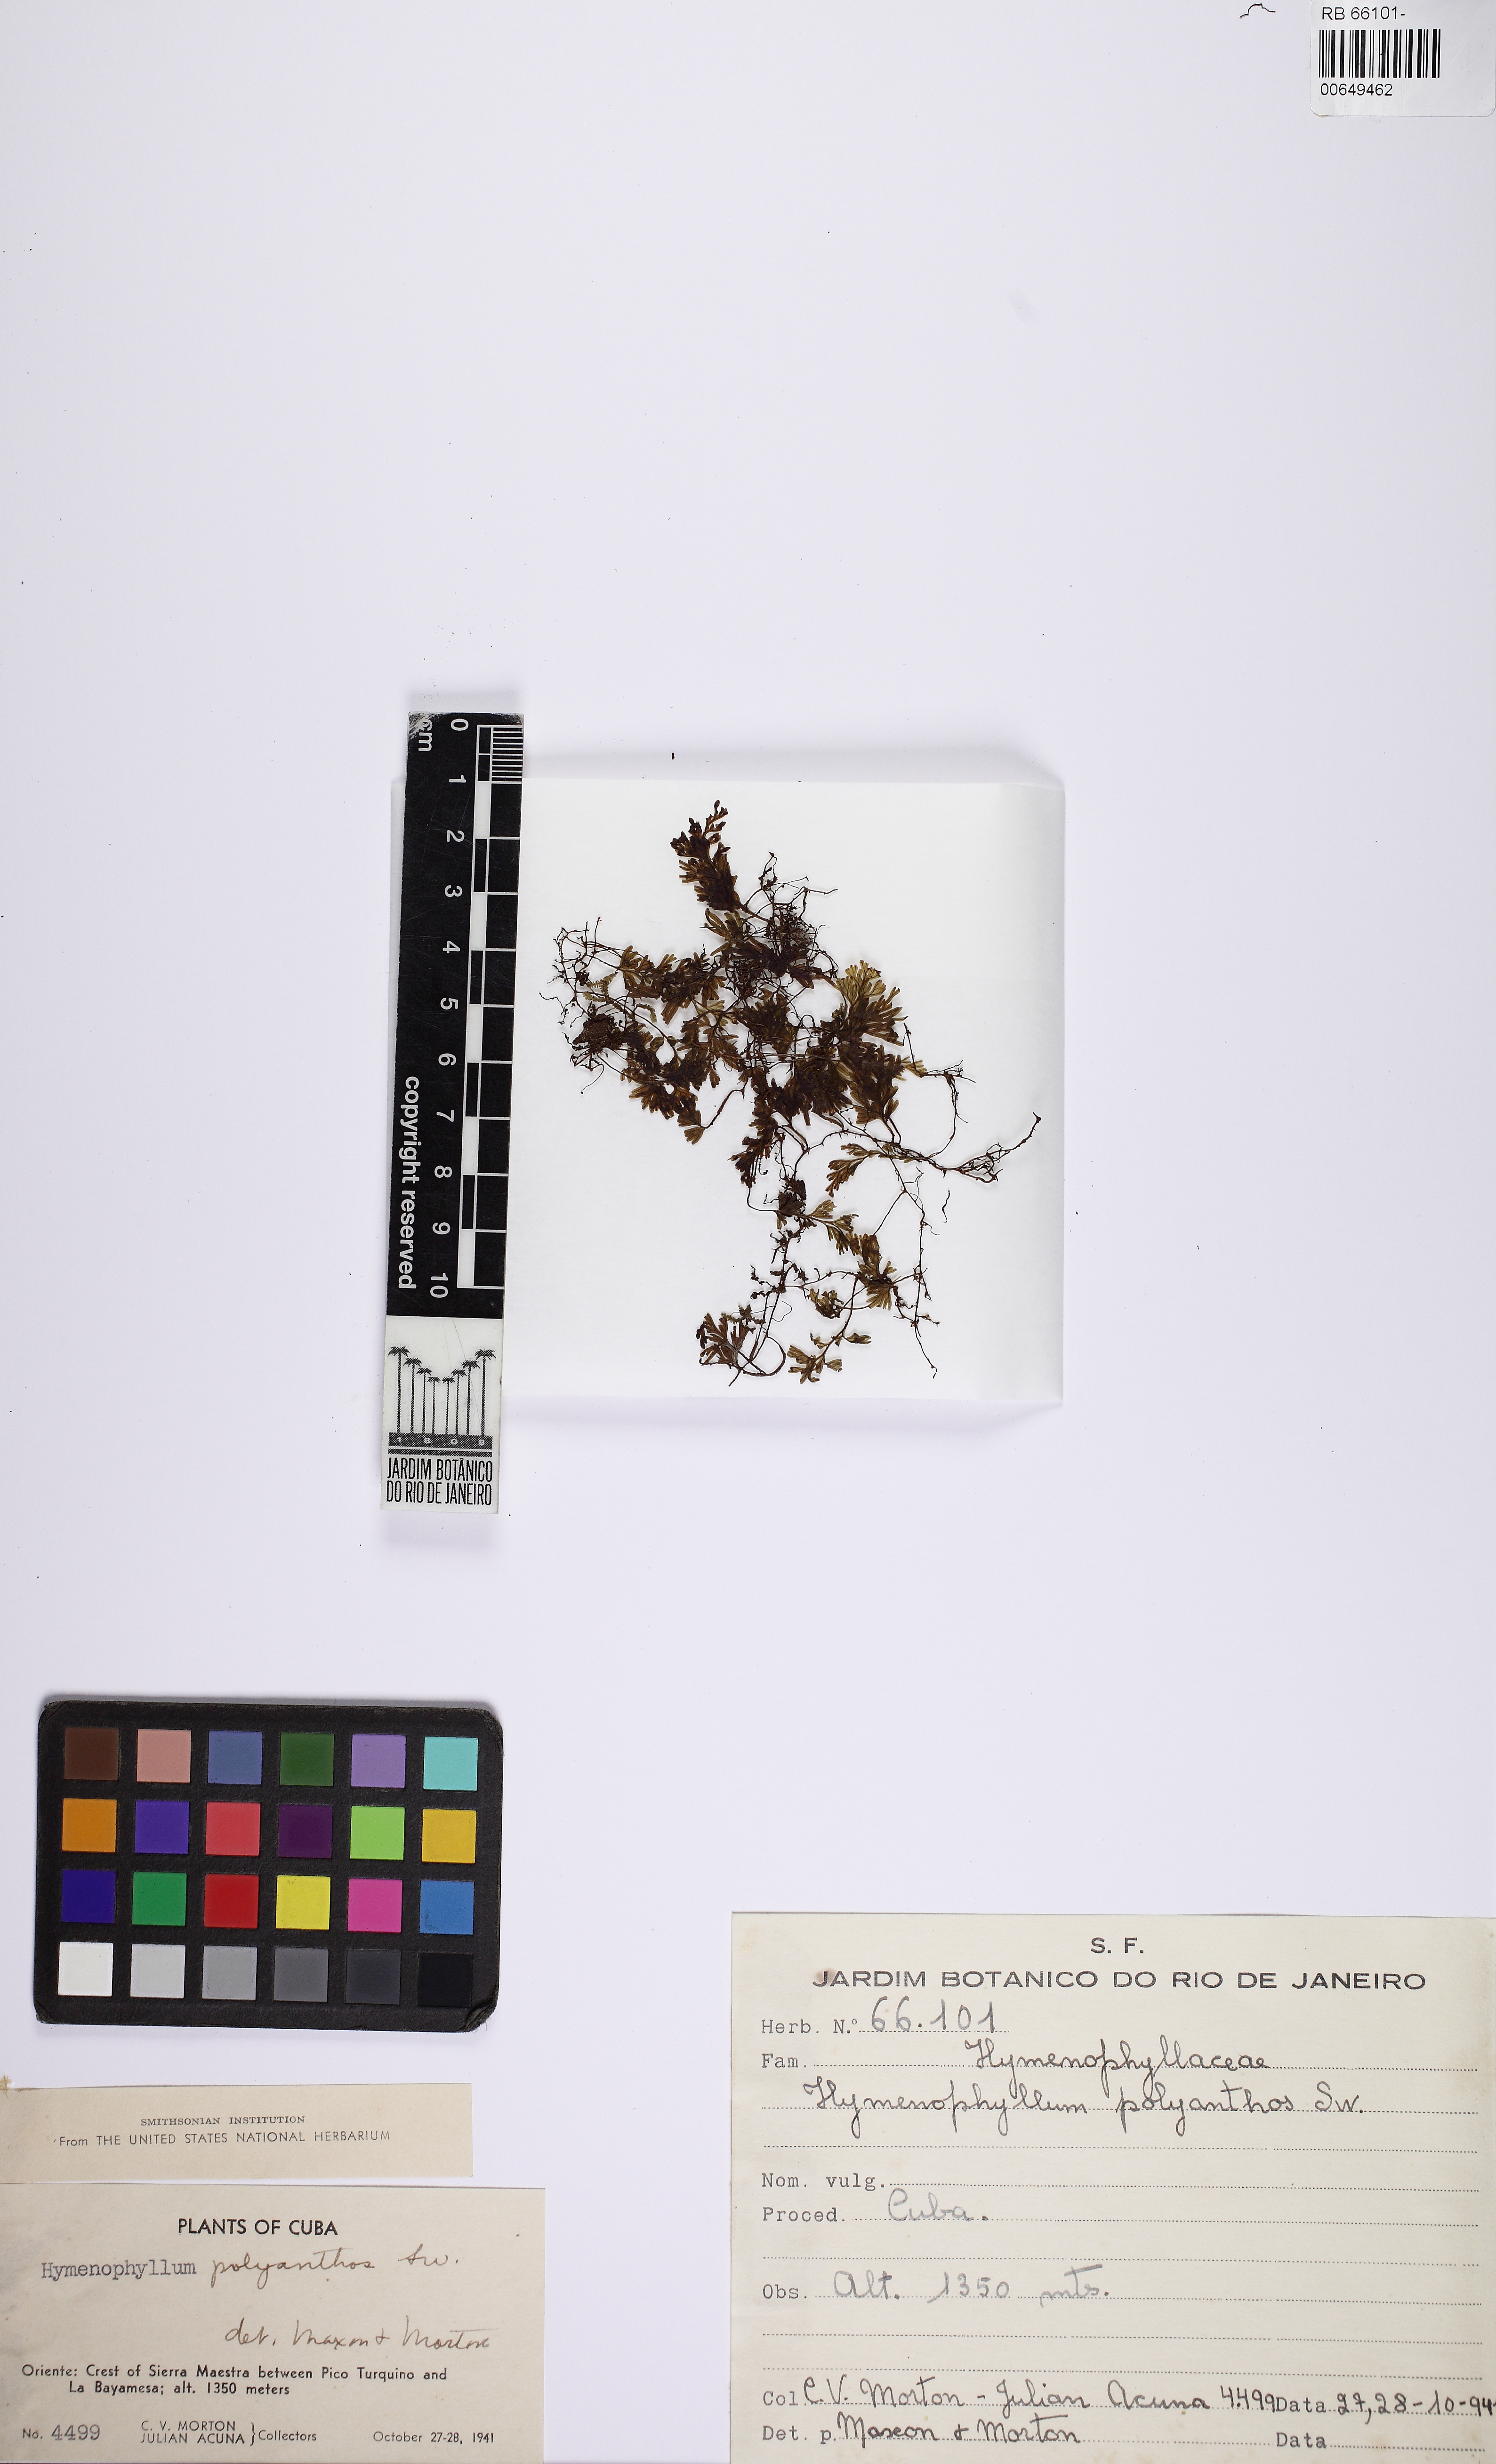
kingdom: Plantae
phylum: Tracheophyta
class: Polypodiopsida
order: Hymenophyllales
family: Hymenophyllaceae
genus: Hymenophyllum
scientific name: Hymenophyllum polyanthos
